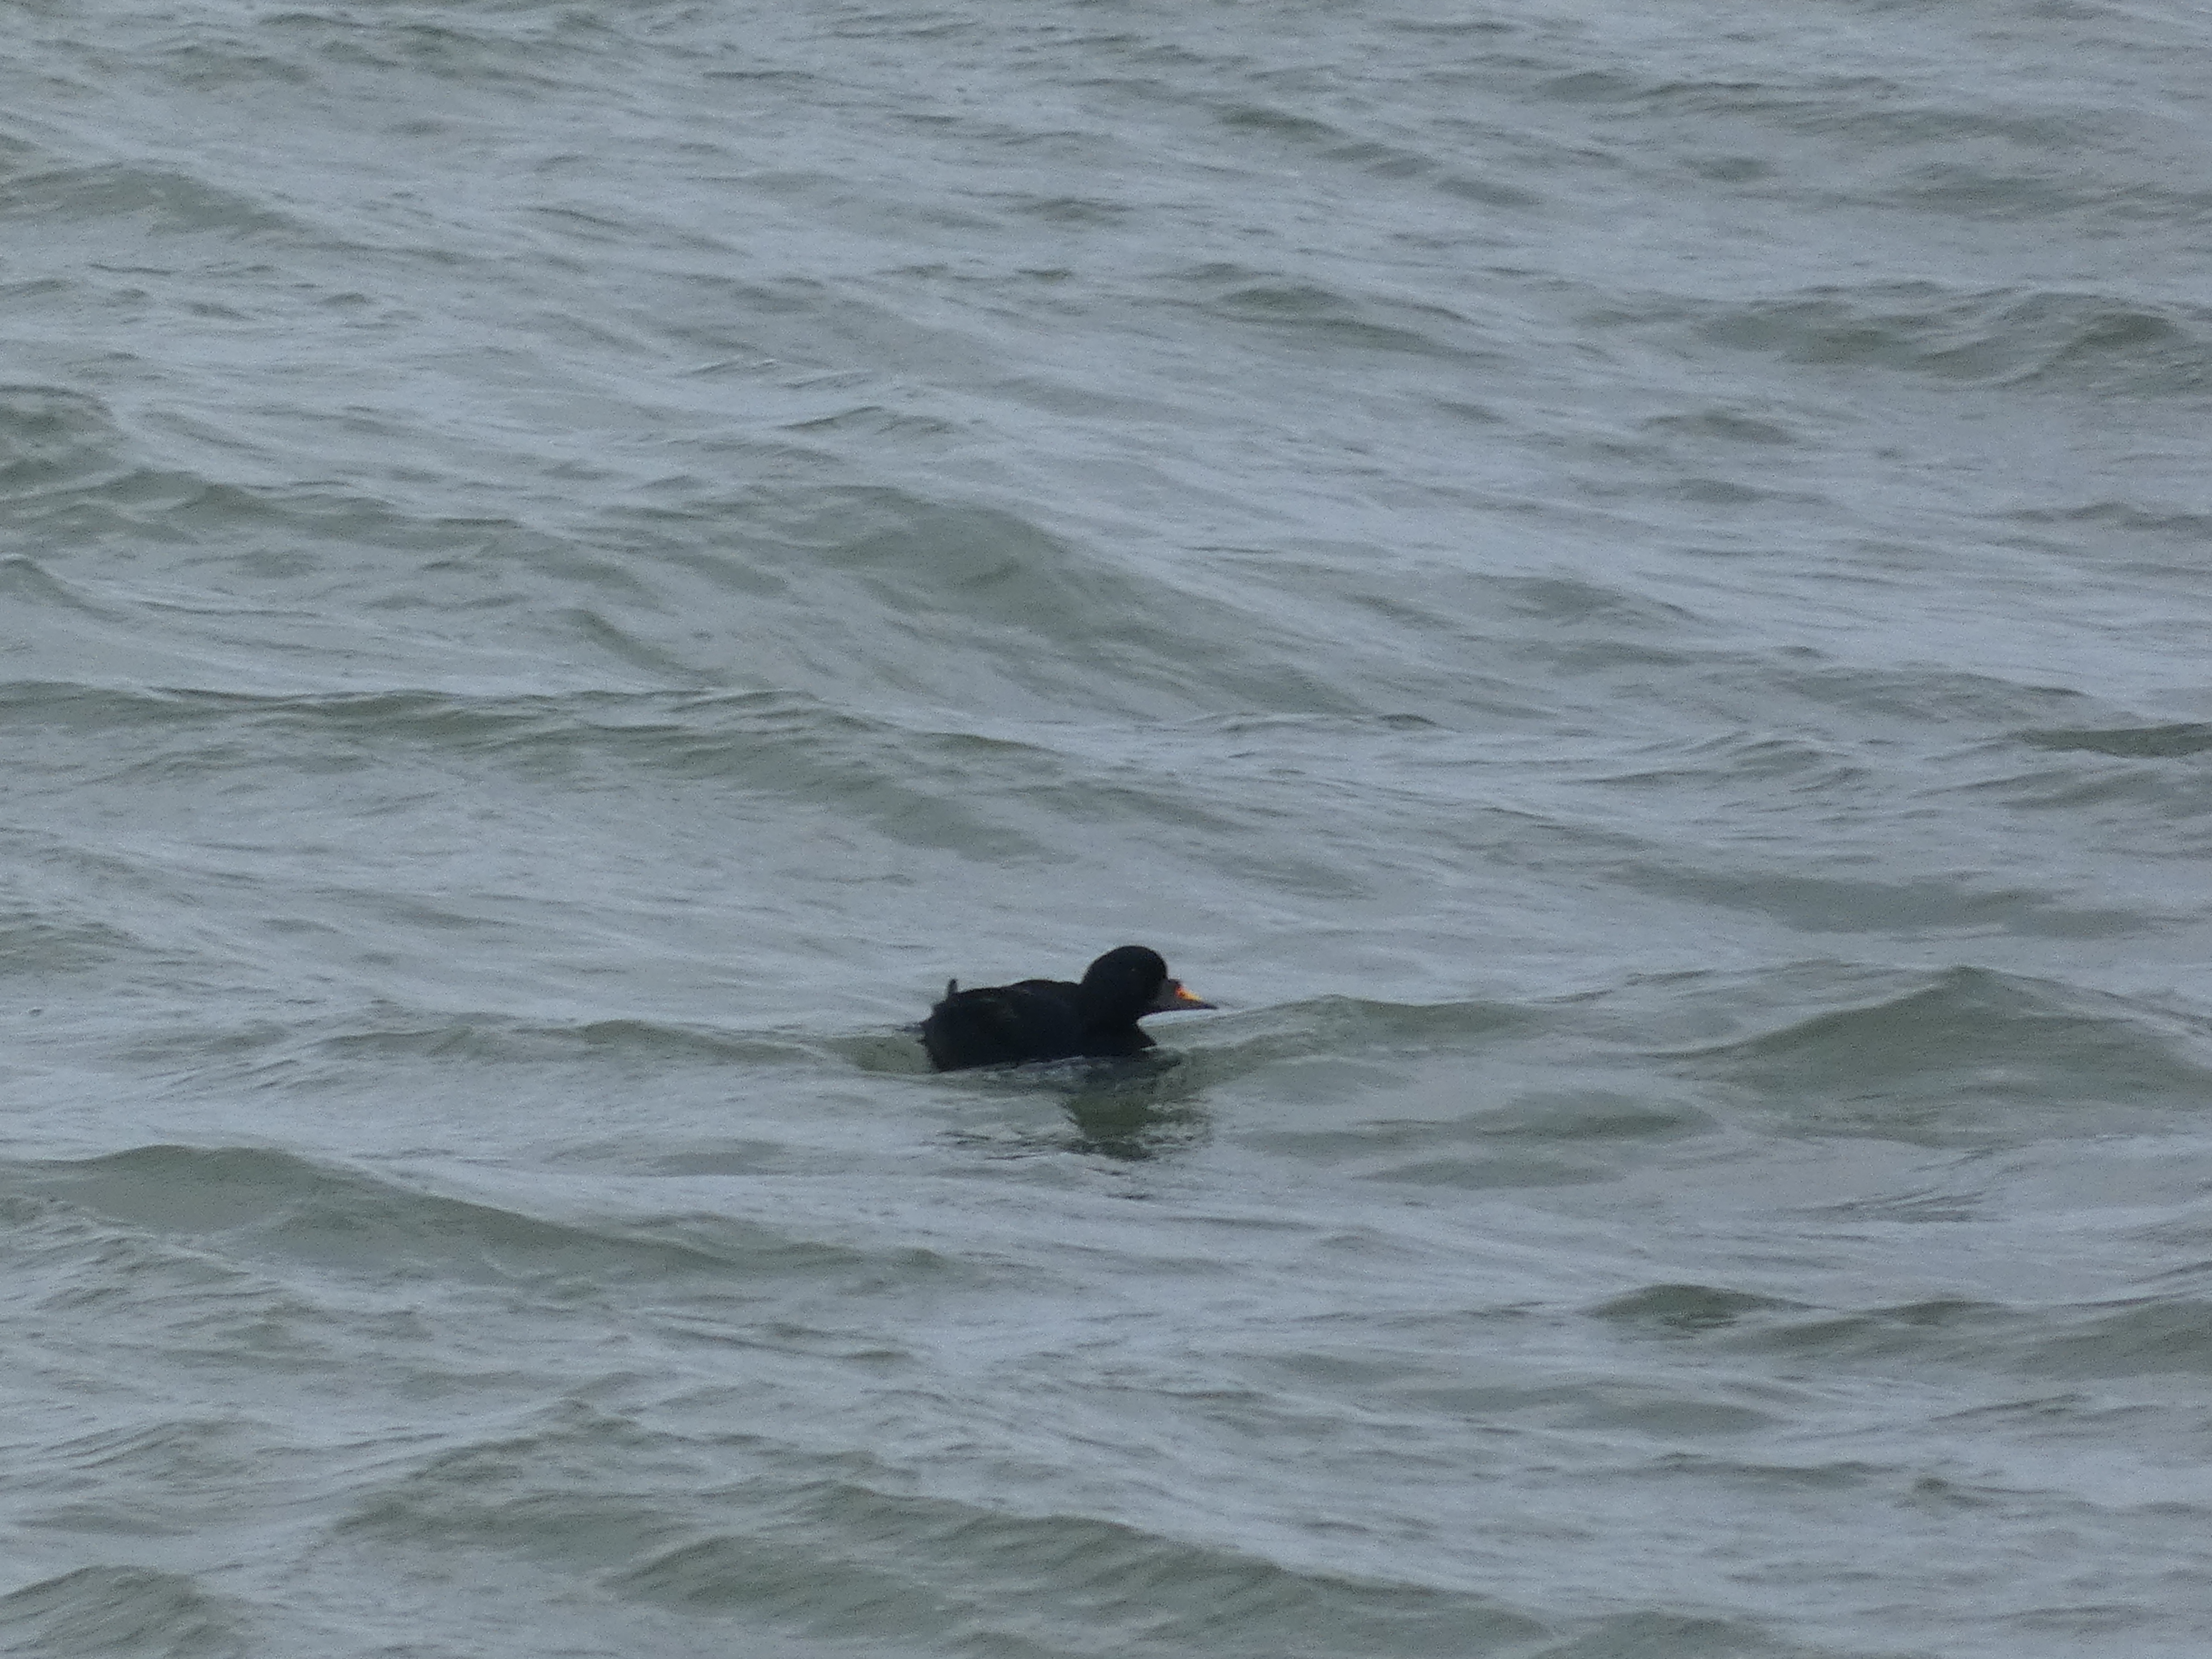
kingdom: Animalia
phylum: Chordata
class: Aves
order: Anseriformes
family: Anatidae
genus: Melanitta
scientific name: Melanitta nigra
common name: Sortand
